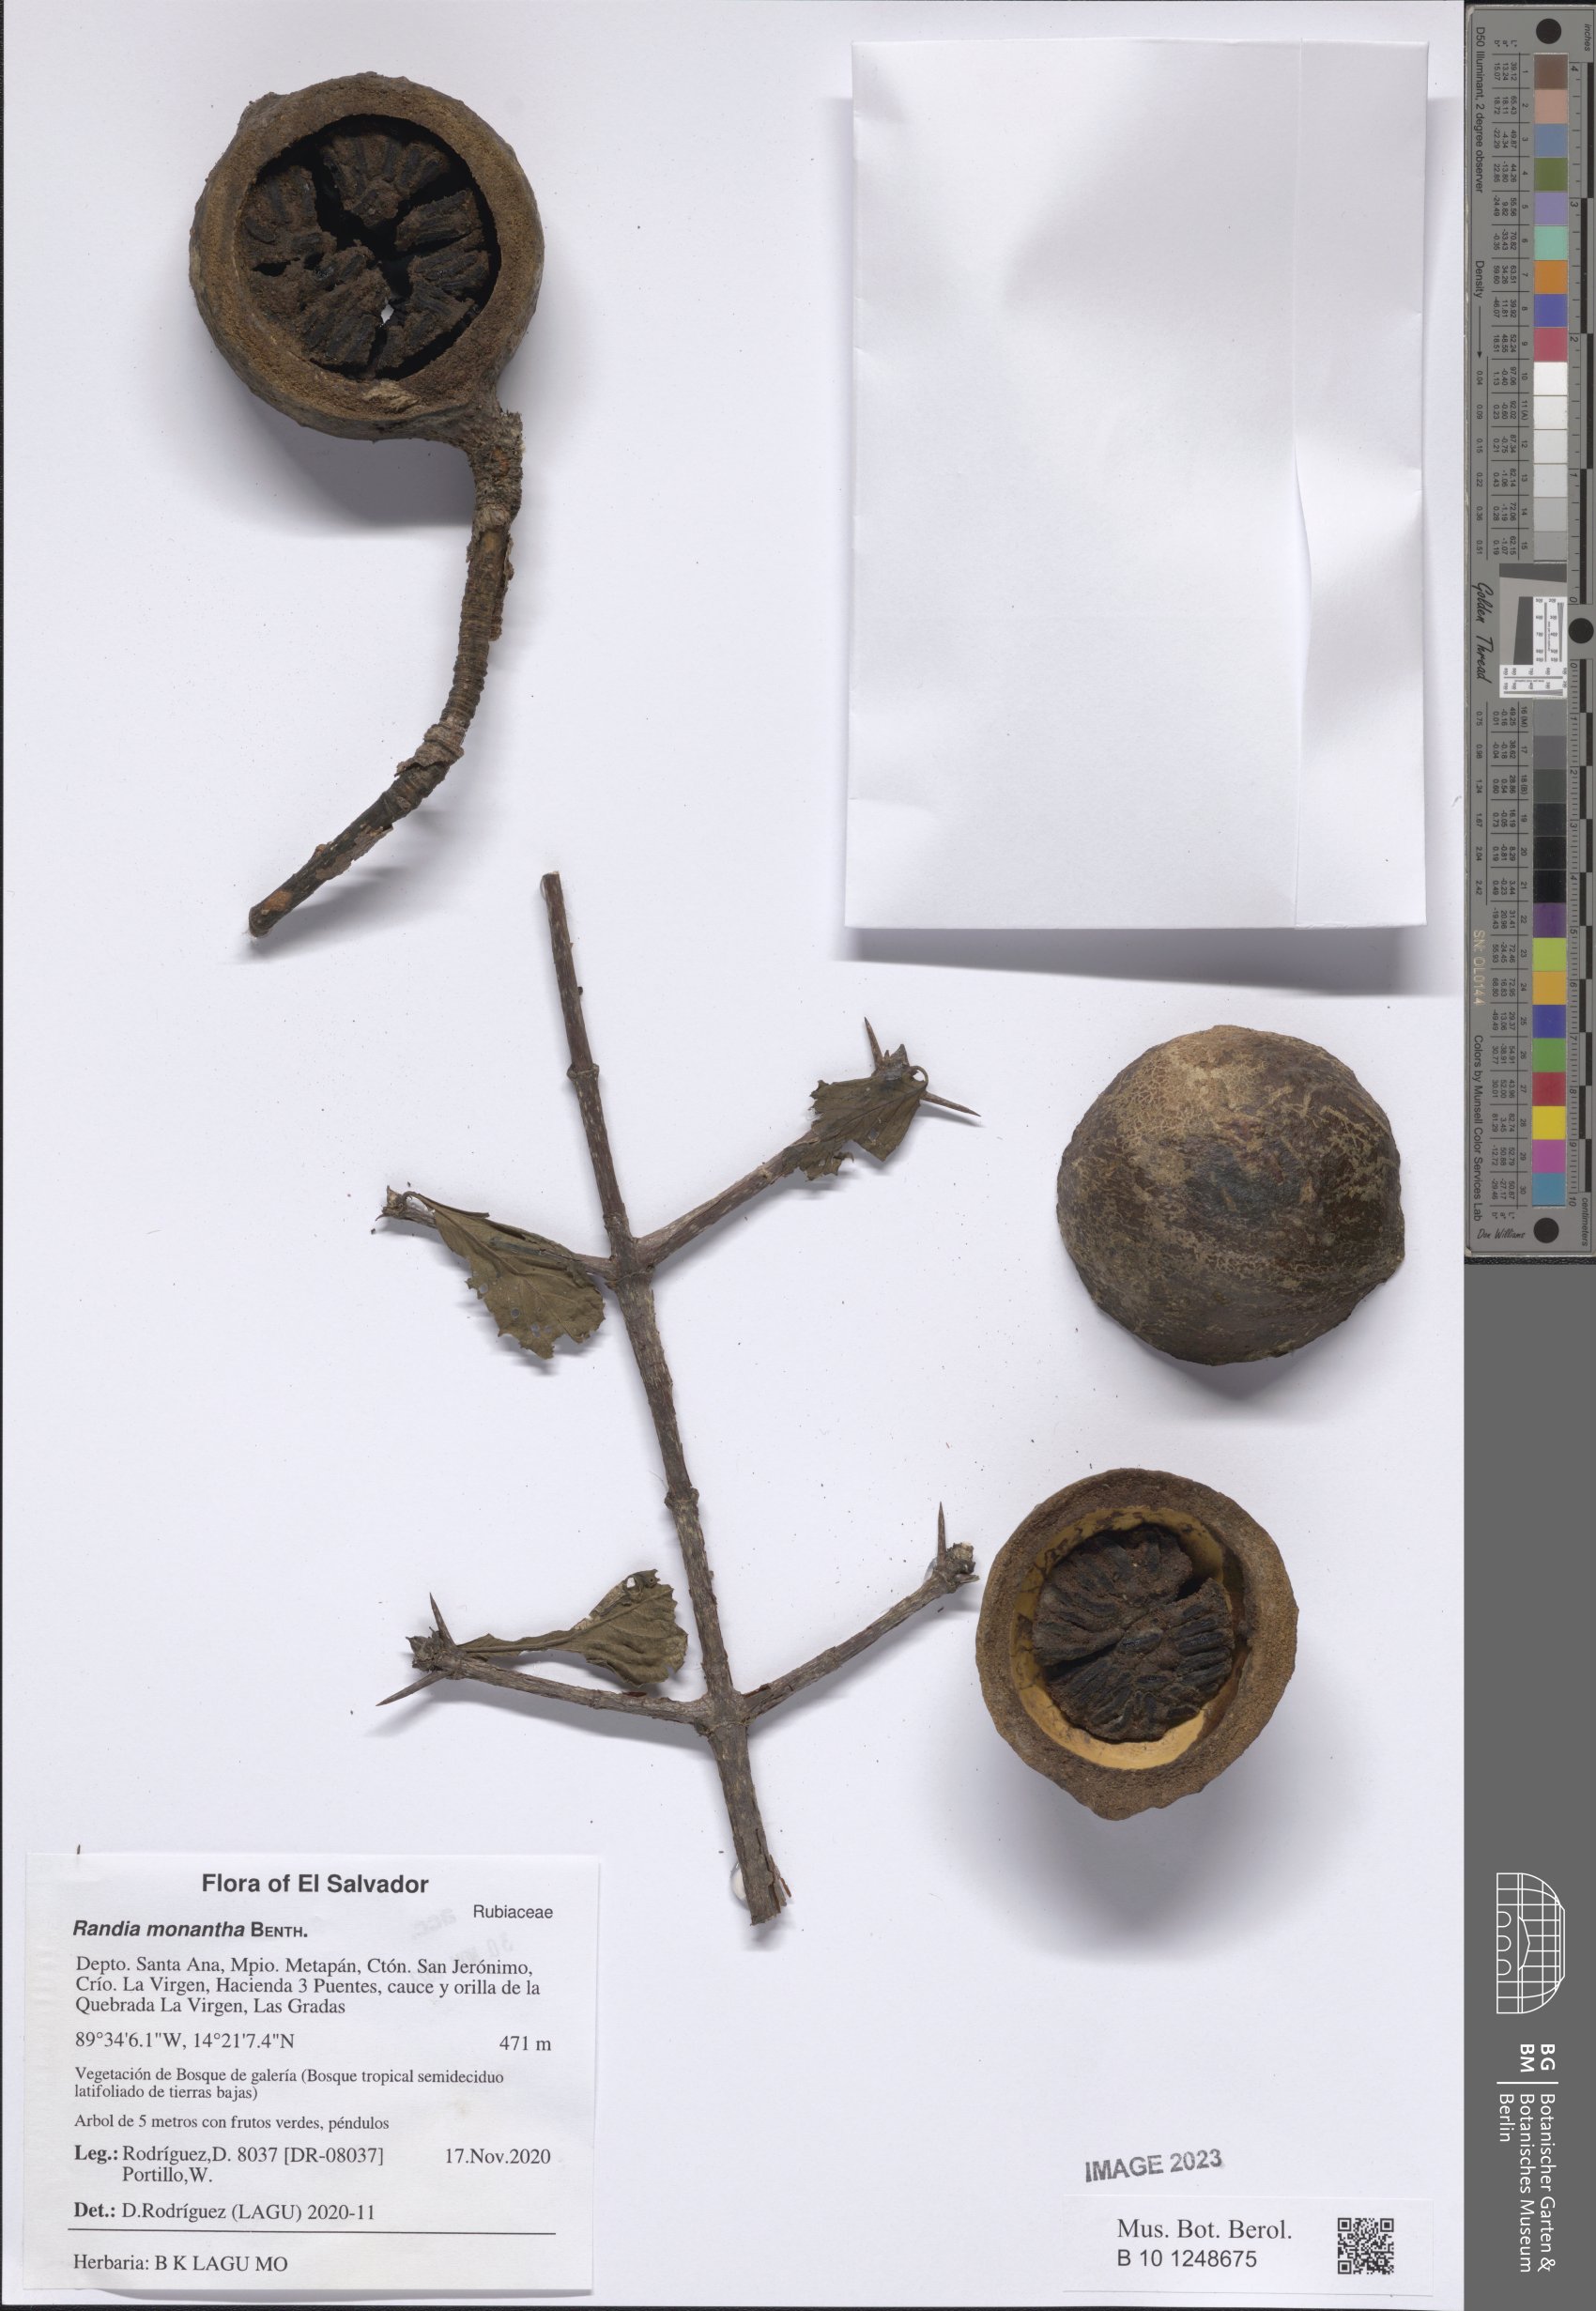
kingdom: Plantae
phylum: Tracheophyta
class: Magnoliopsida
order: Gentianales
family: Rubiaceae
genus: Randia
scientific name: Randia monantha
